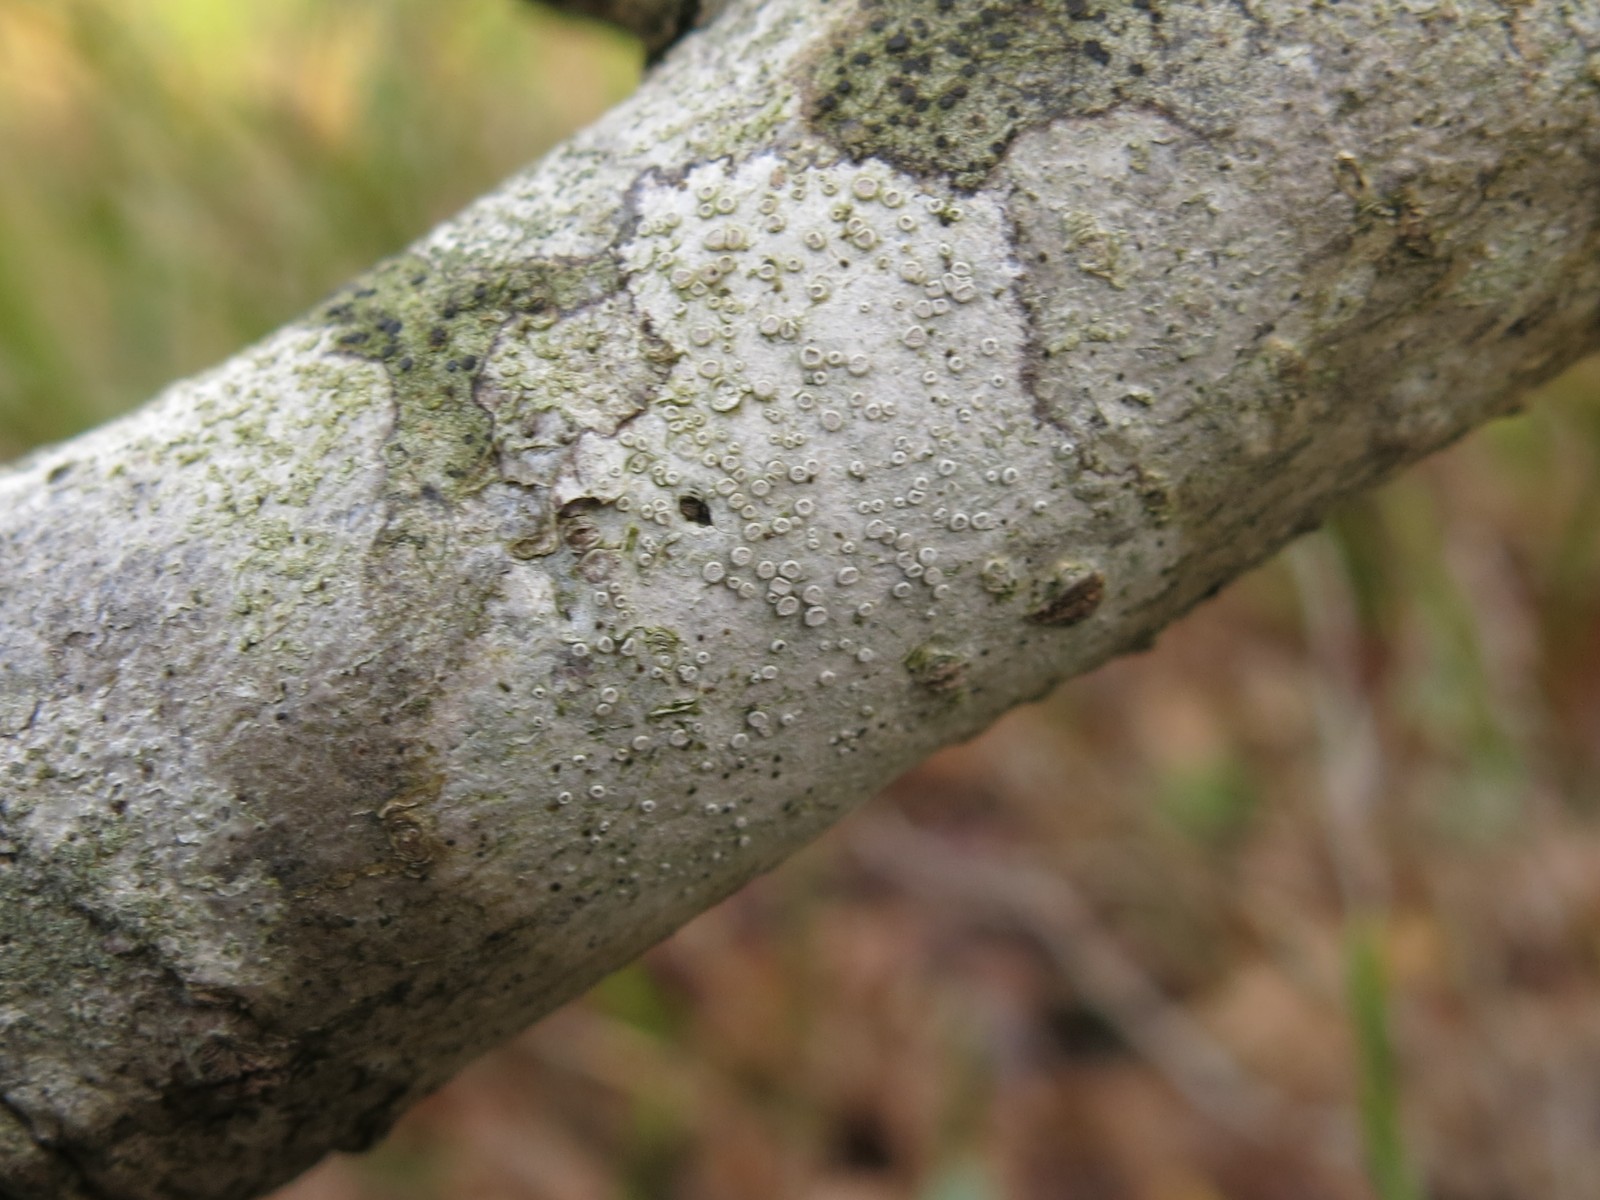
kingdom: Fungi
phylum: Ascomycota
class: Lecanoromycetes
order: Lecanorales
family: Lecanoraceae
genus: Glaucomaria
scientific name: Glaucomaria carpinea
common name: hviddugget kantskivelav
